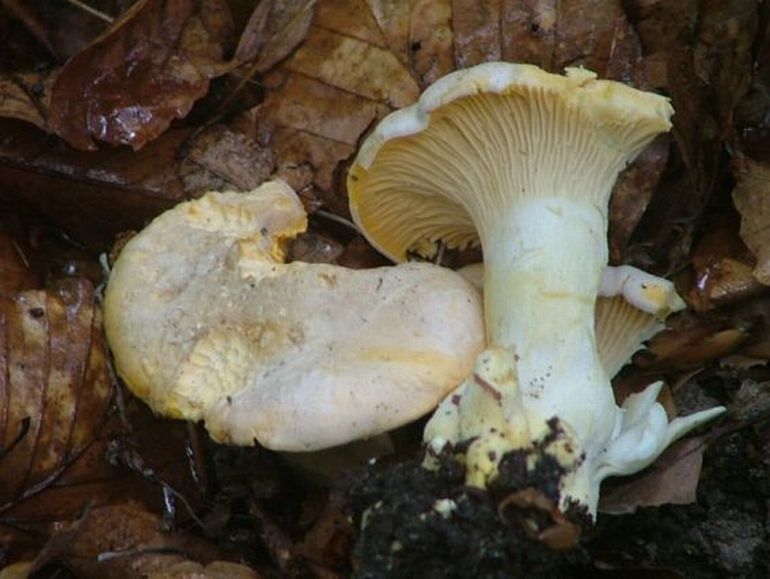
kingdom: Fungi
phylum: Basidiomycota
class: Agaricomycetes
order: Cantharellales
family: Hydnaceae
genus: Cantharellus
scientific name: Cantharellus pallens
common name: bleg kantarel
